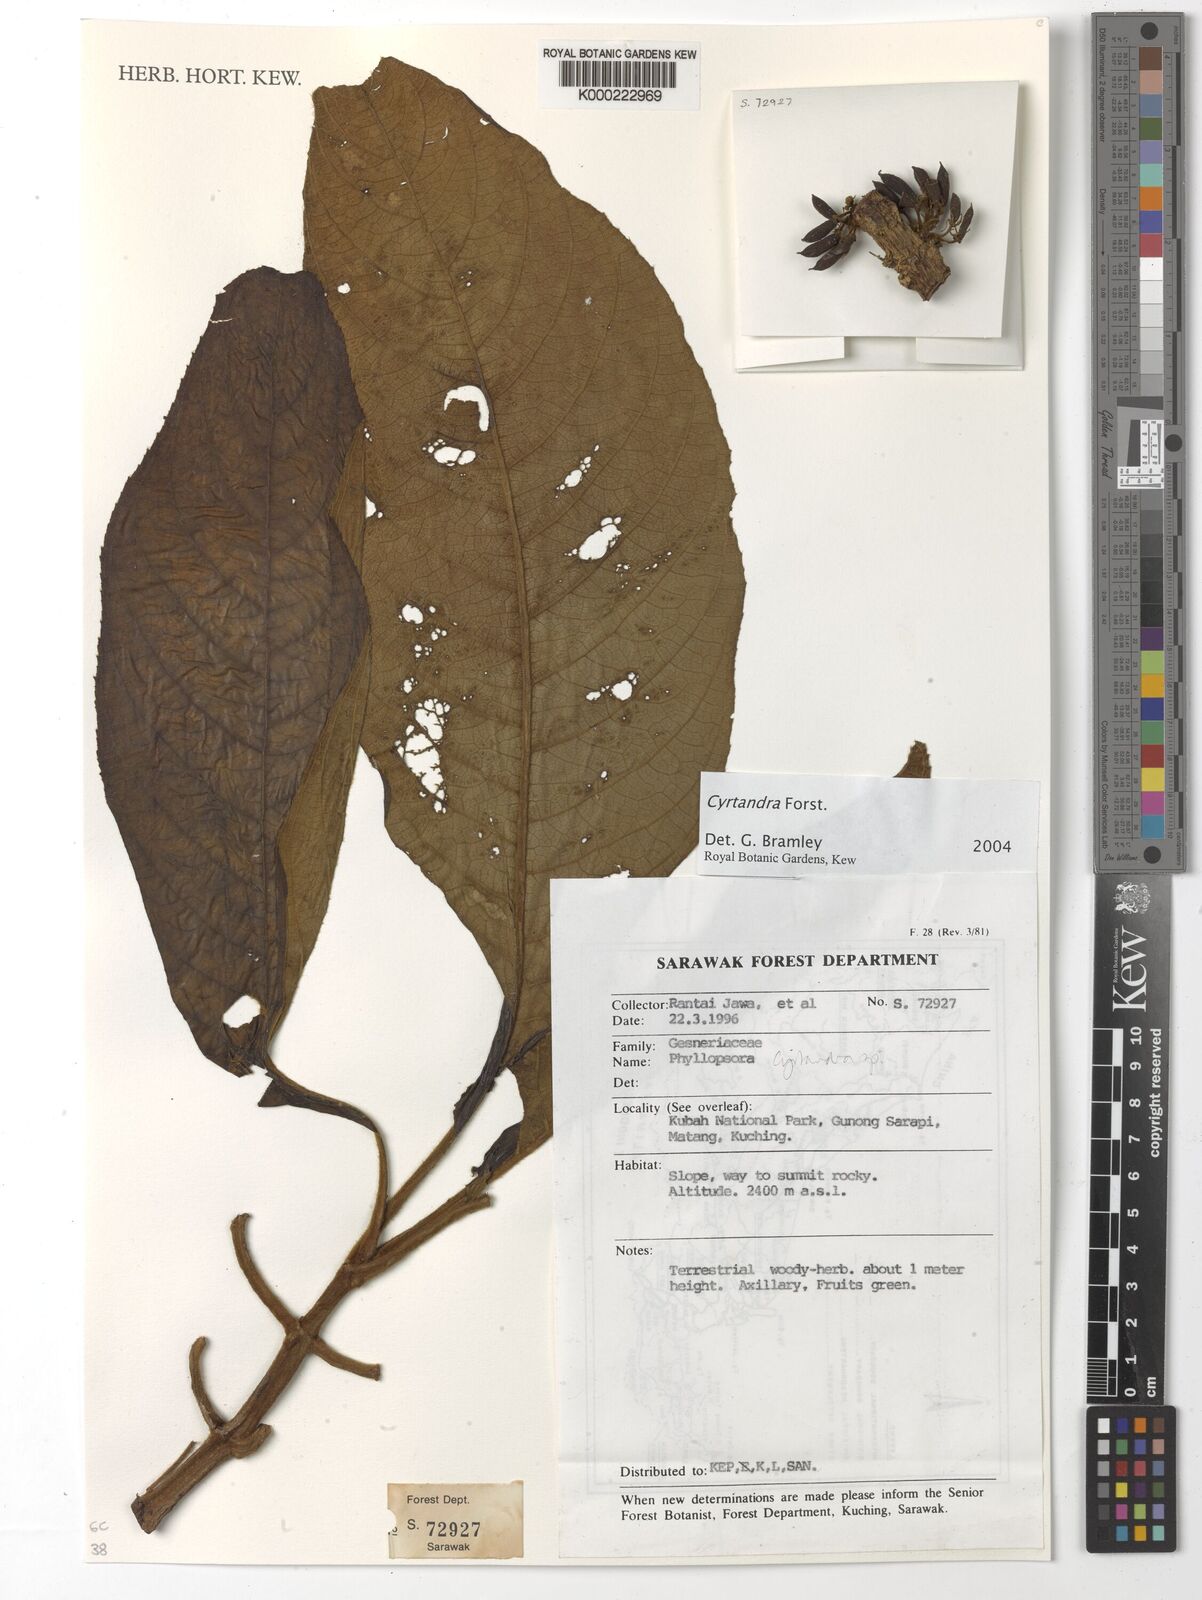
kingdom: Plantae
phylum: Tracheophyta
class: Magnoliopsida
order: Lamiales
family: Gesneriaceae
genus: Cyrtandra
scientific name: Cyrtandra
